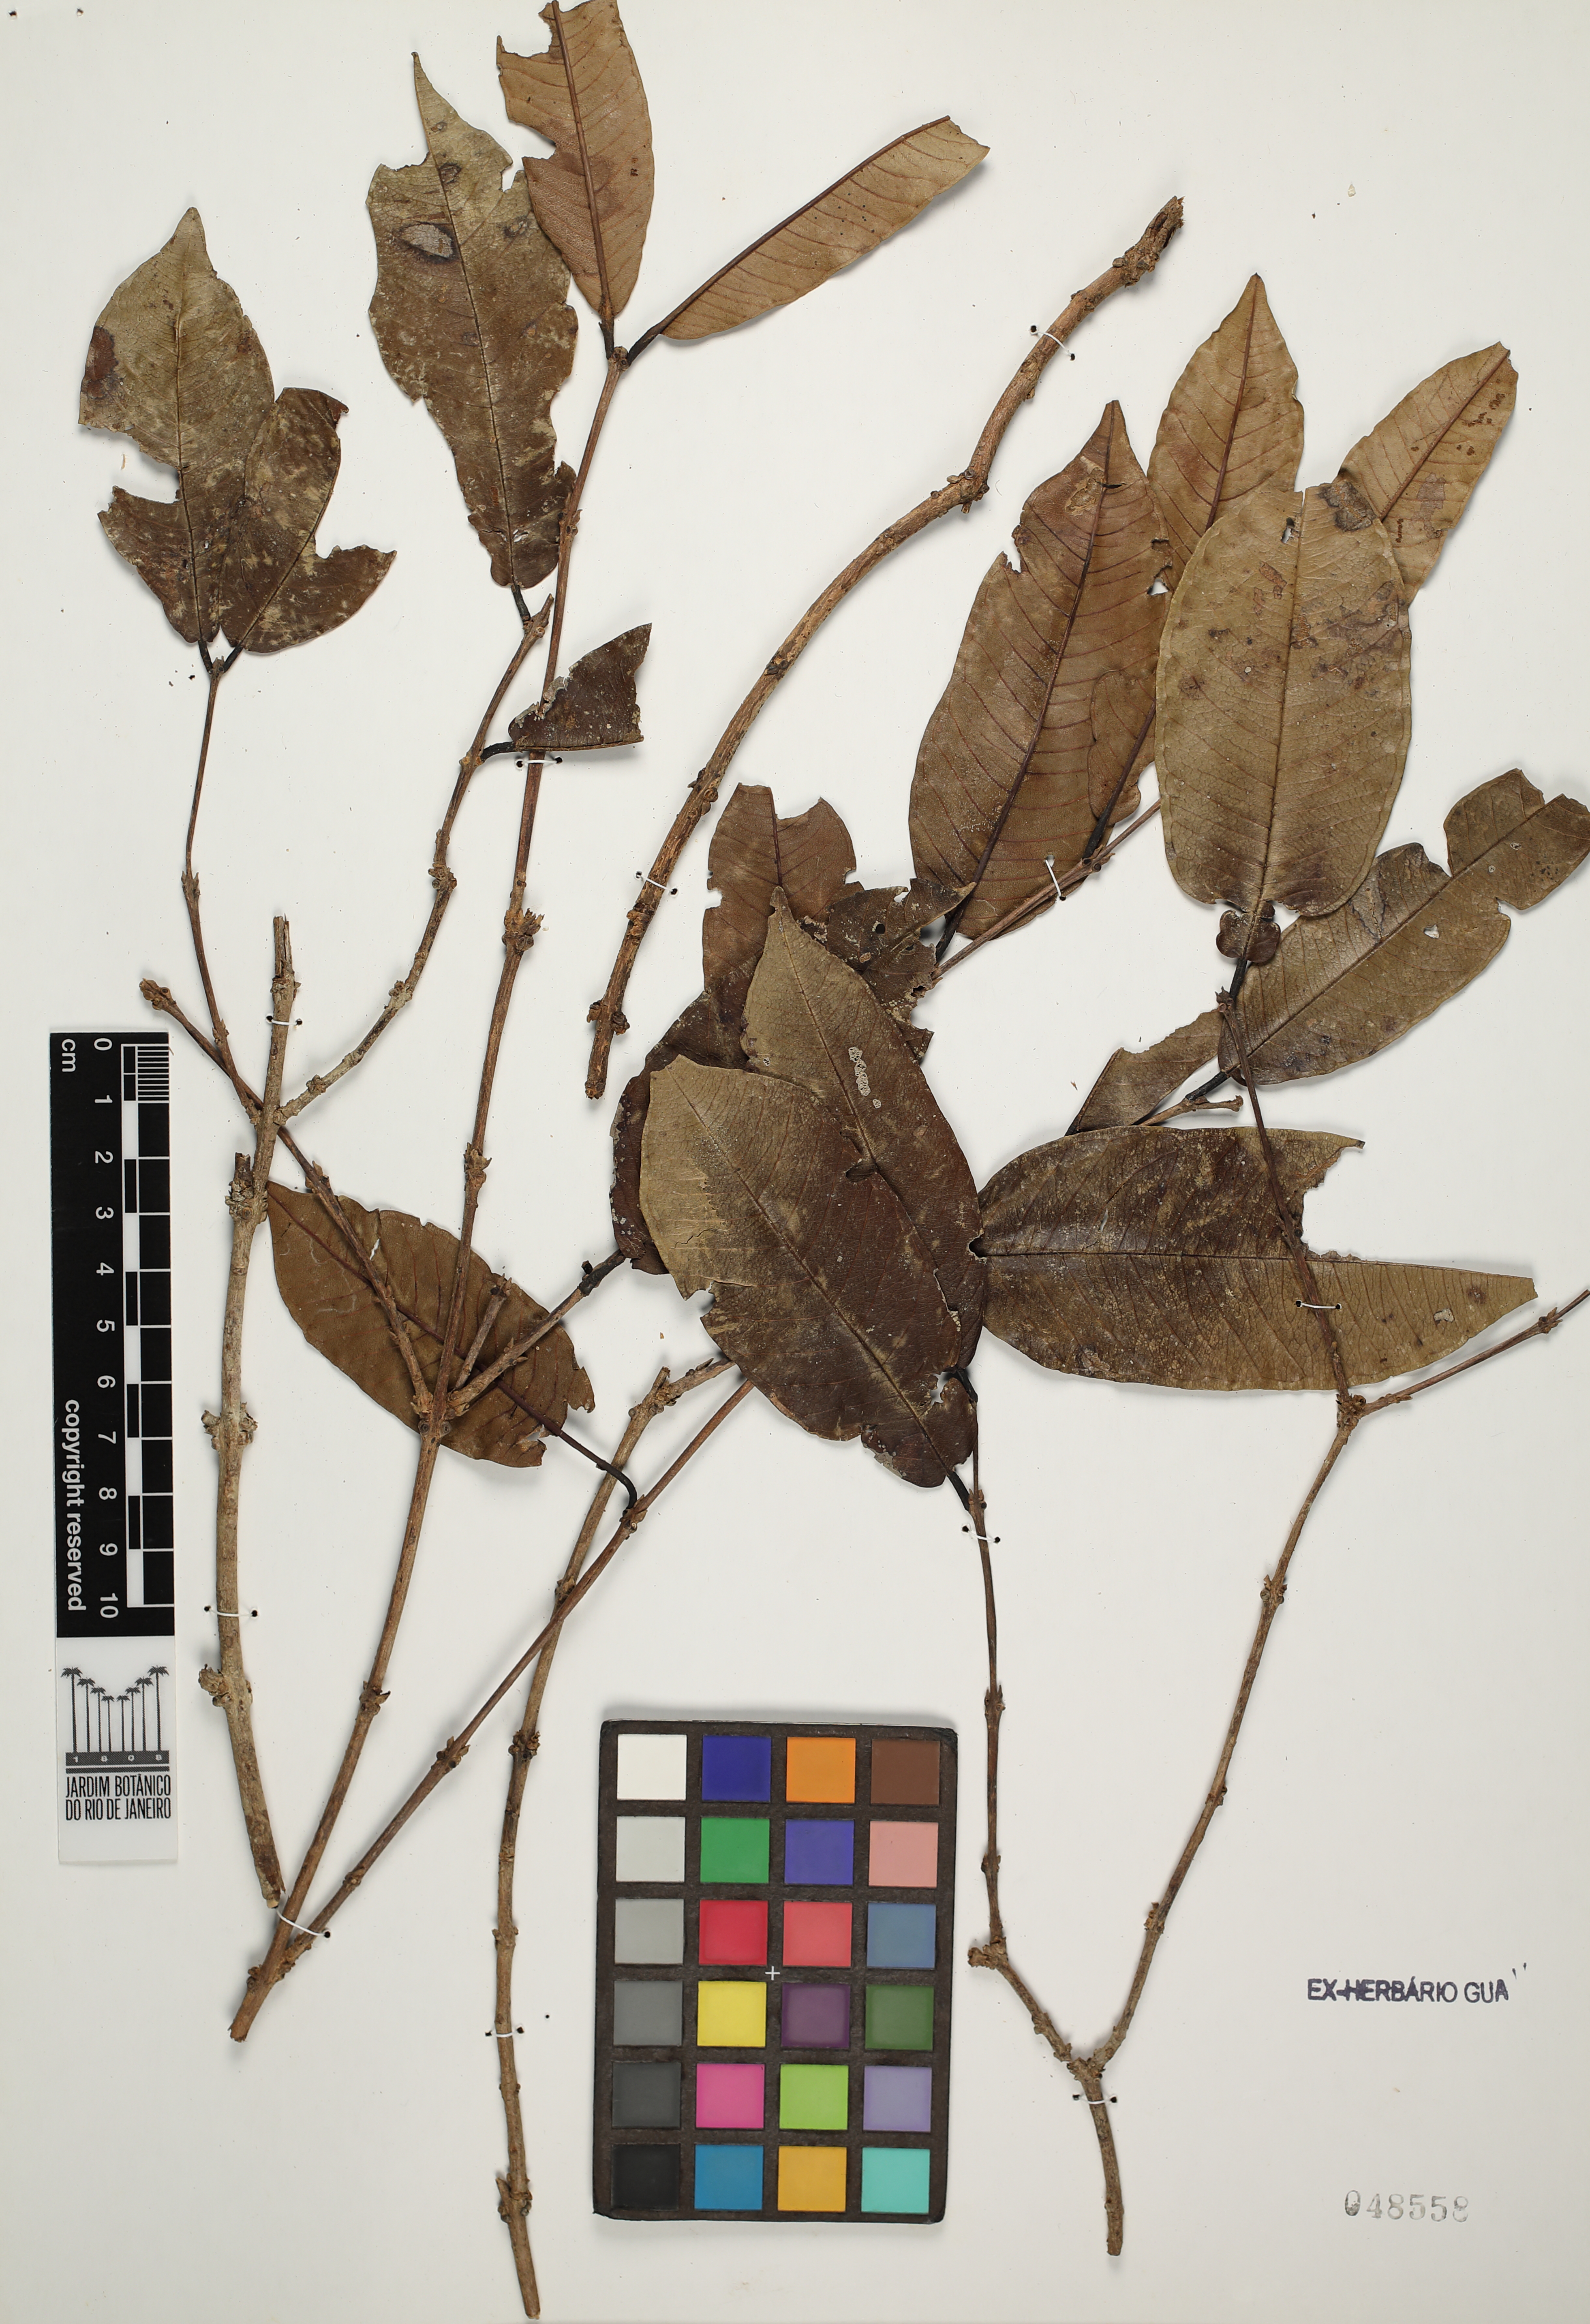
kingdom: Plantae
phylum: Tracheophyta
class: Magnoliopsida
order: Myrtales
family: Vochysiaceae
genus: Qualea
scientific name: Qualea megalocarpa
